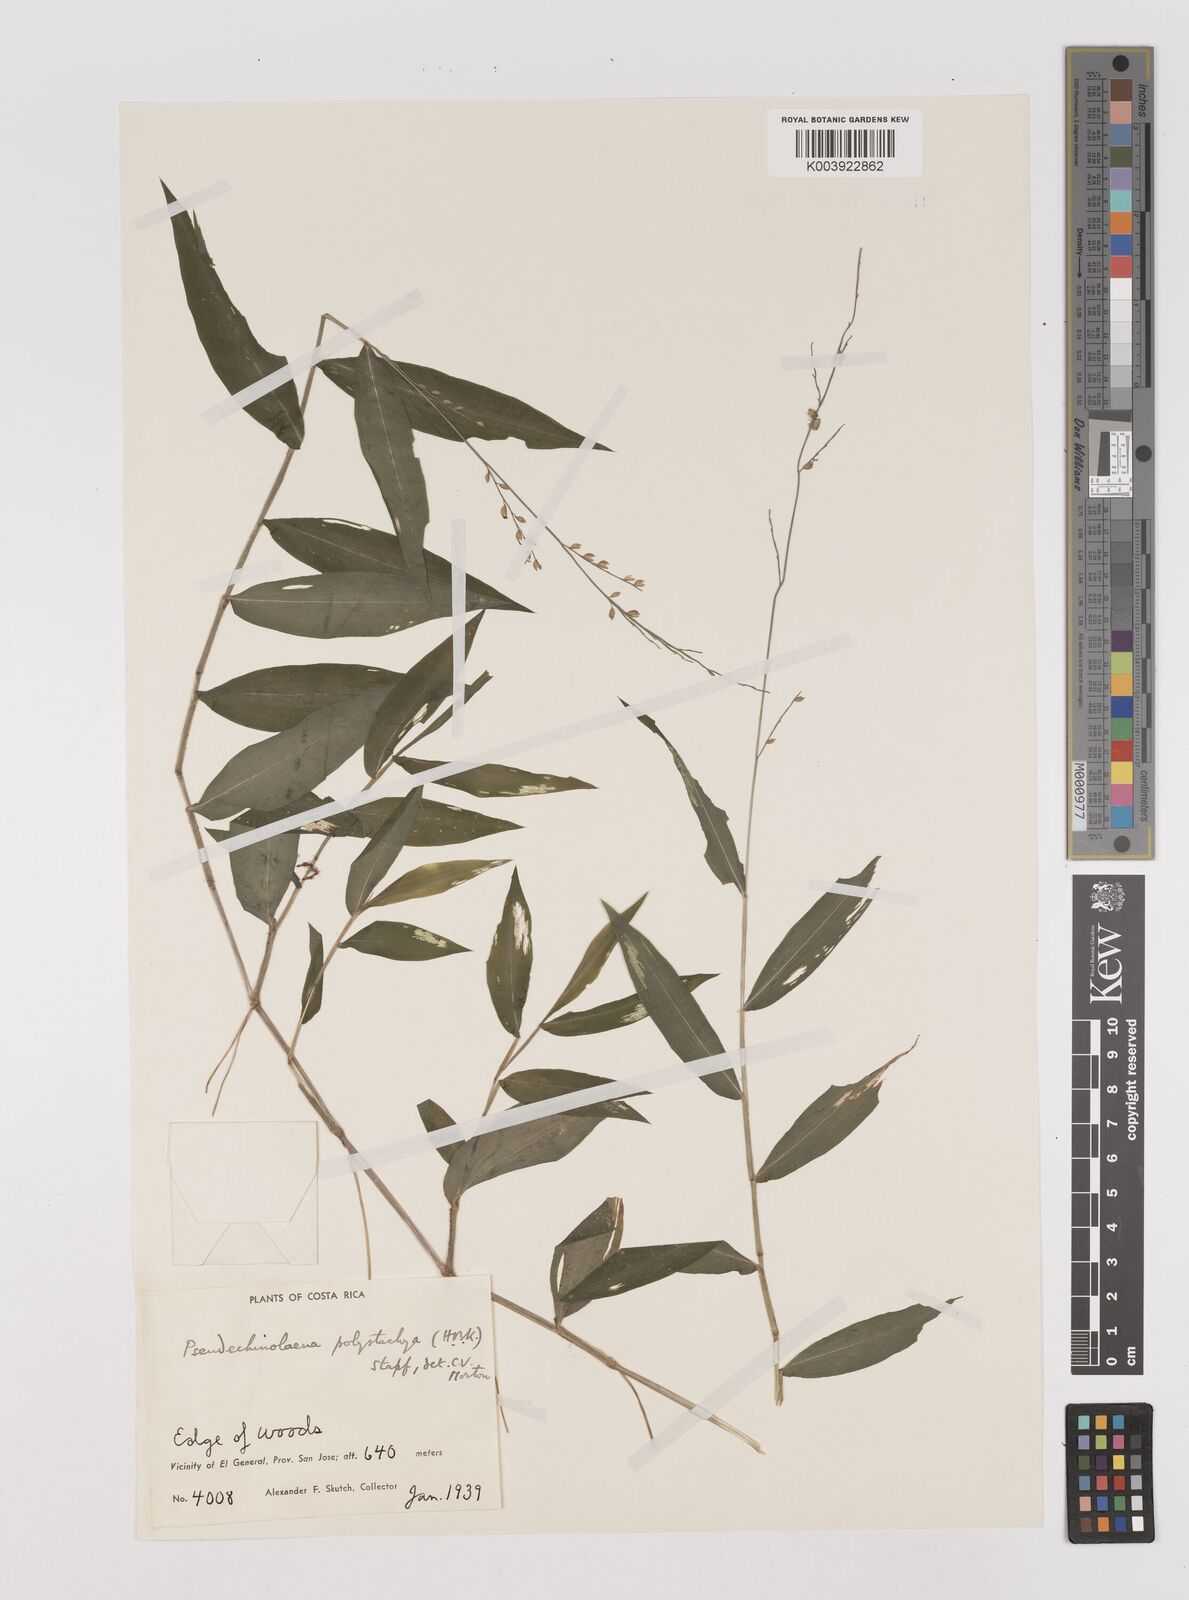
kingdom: Plantae
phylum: Tracheophyta
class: Liliopsida
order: Poales
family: Poaceae
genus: Pseudechinolaena
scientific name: Pseudechinolaena polystachya
